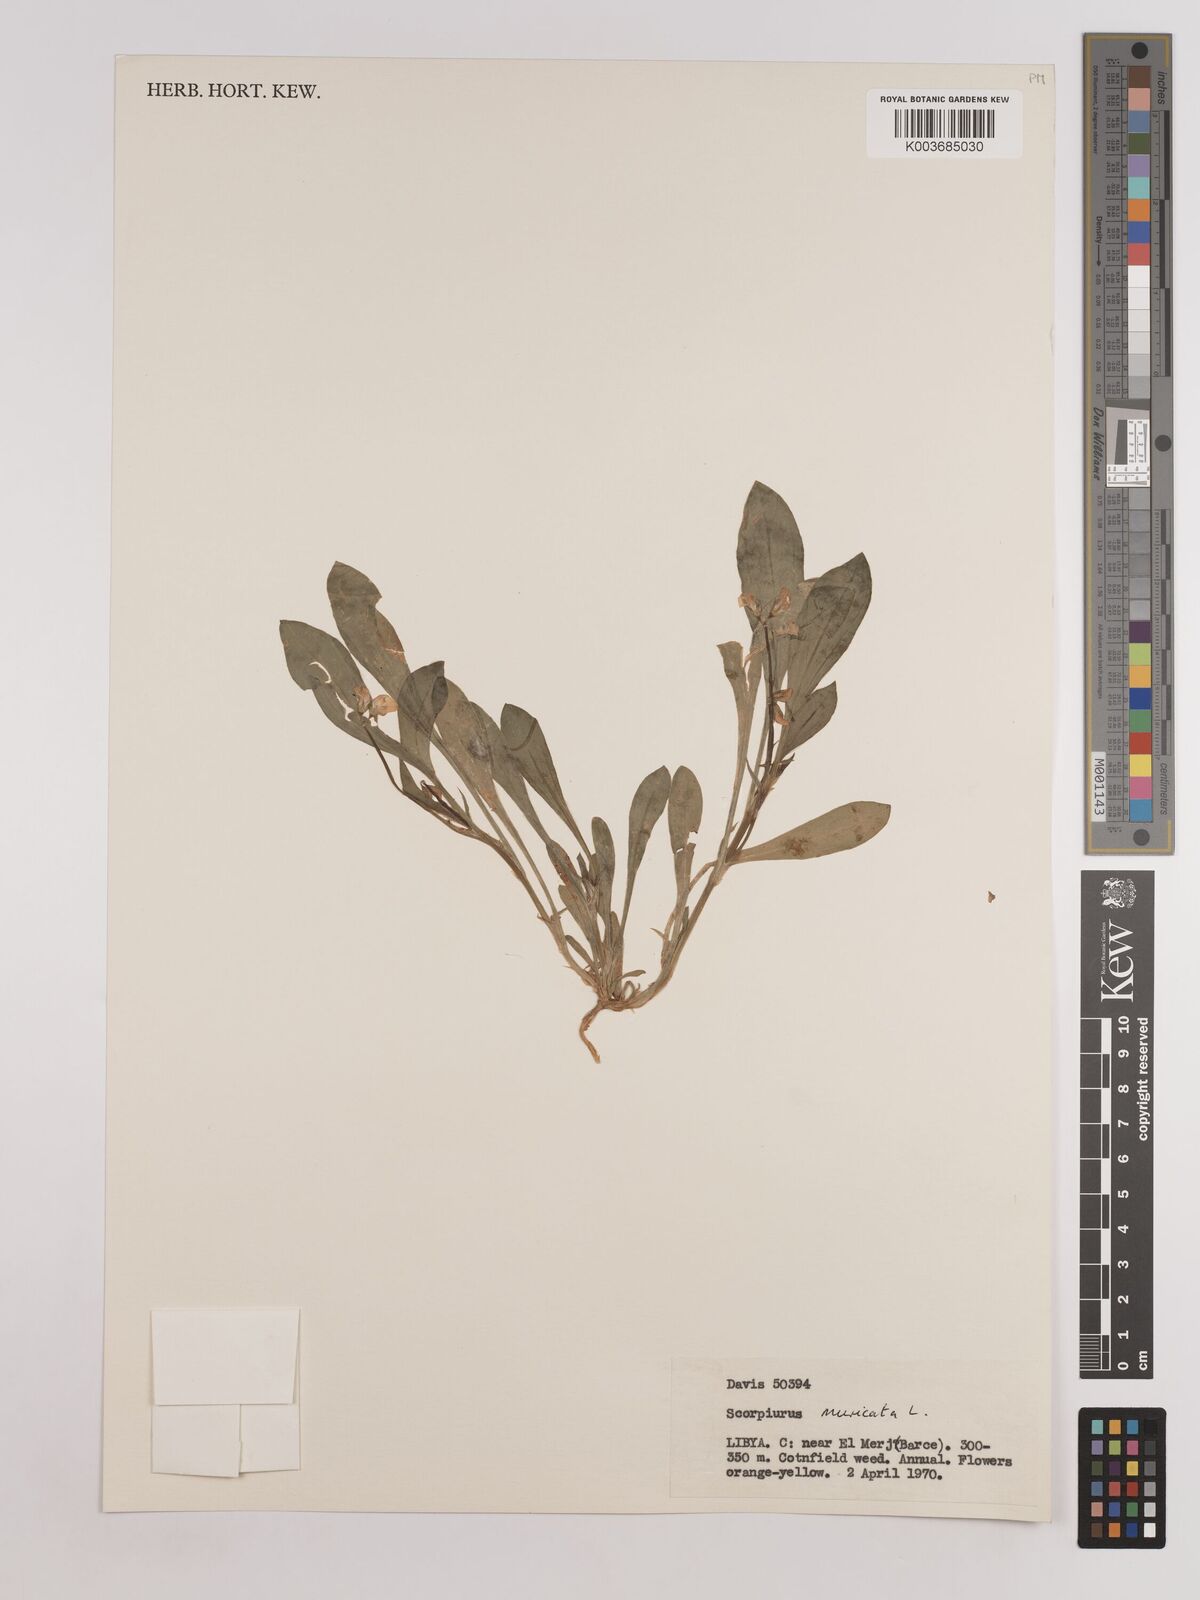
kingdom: Plantae
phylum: Tracheophyta
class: Magnoliopsida
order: Fabales
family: Fabaceae
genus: Scorpiurus
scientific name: Scorpiurus muricatus
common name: Caterpillar-plant
